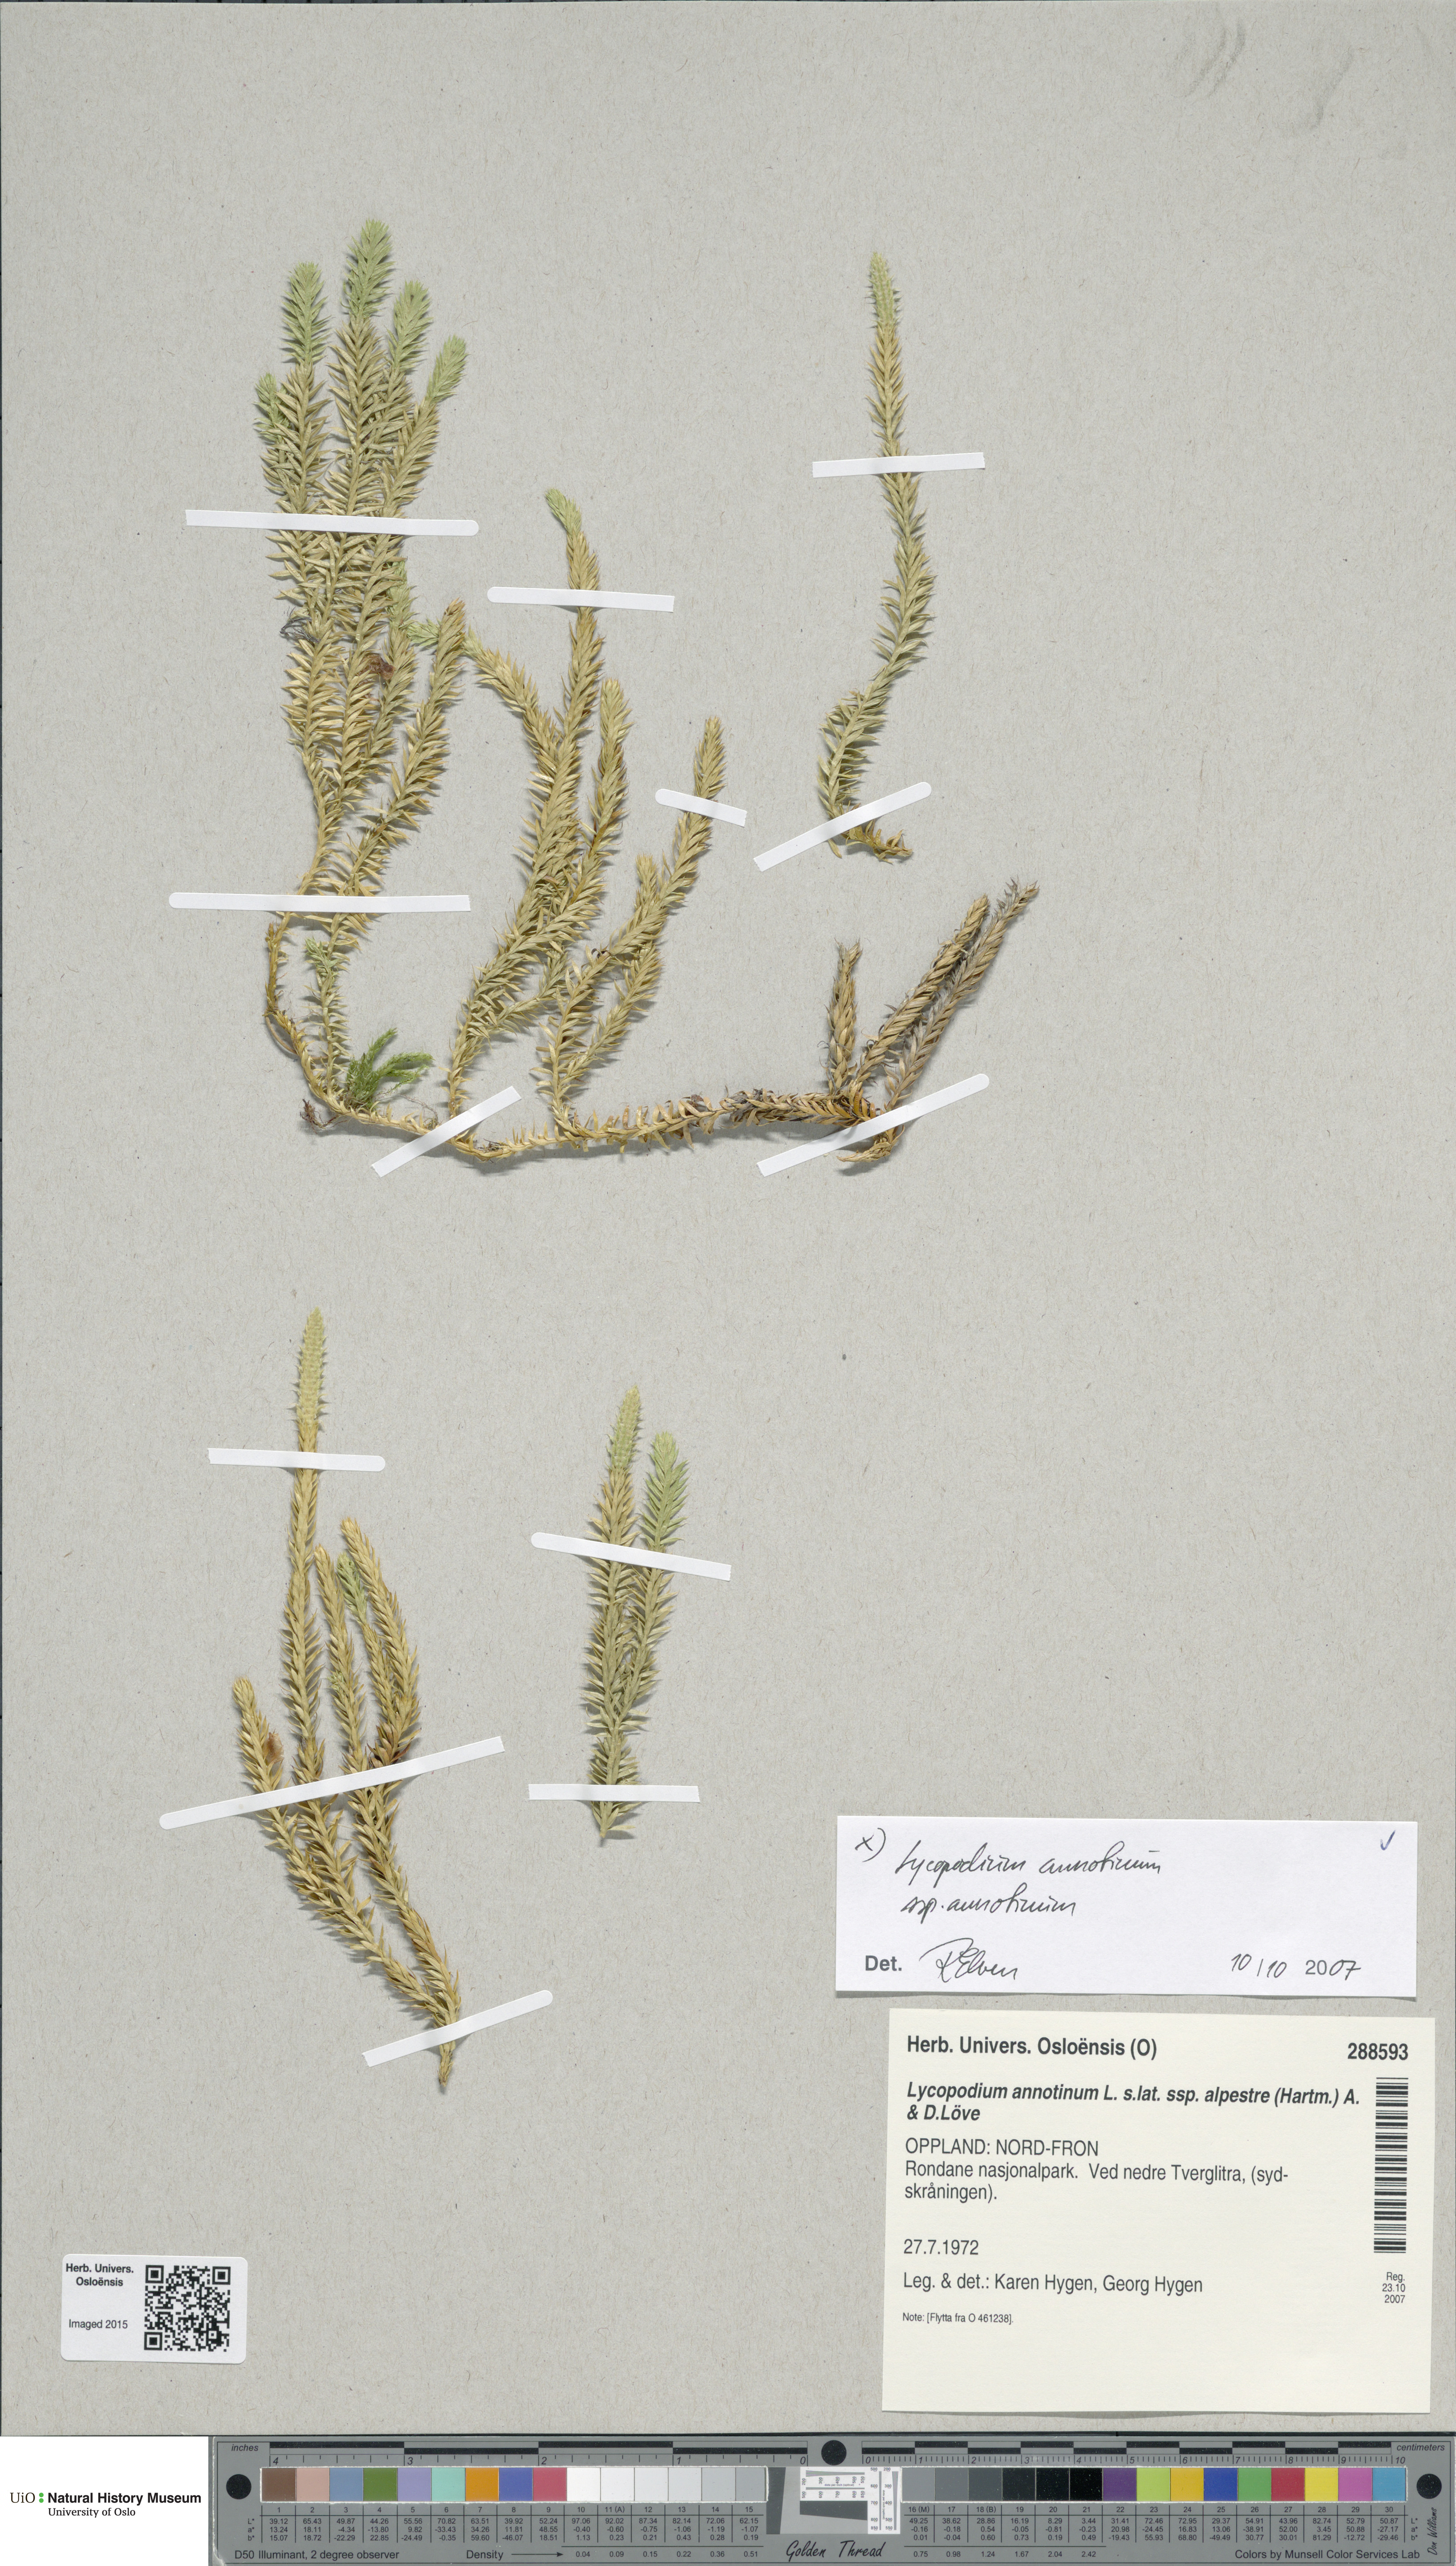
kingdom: Plantae
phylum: Tracheophyta
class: Lycopodiopsida
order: Lycopodiales
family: Lycopodiaceae
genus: Spinulum
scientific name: Spinulum annotinum
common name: Interrupted club-moss
